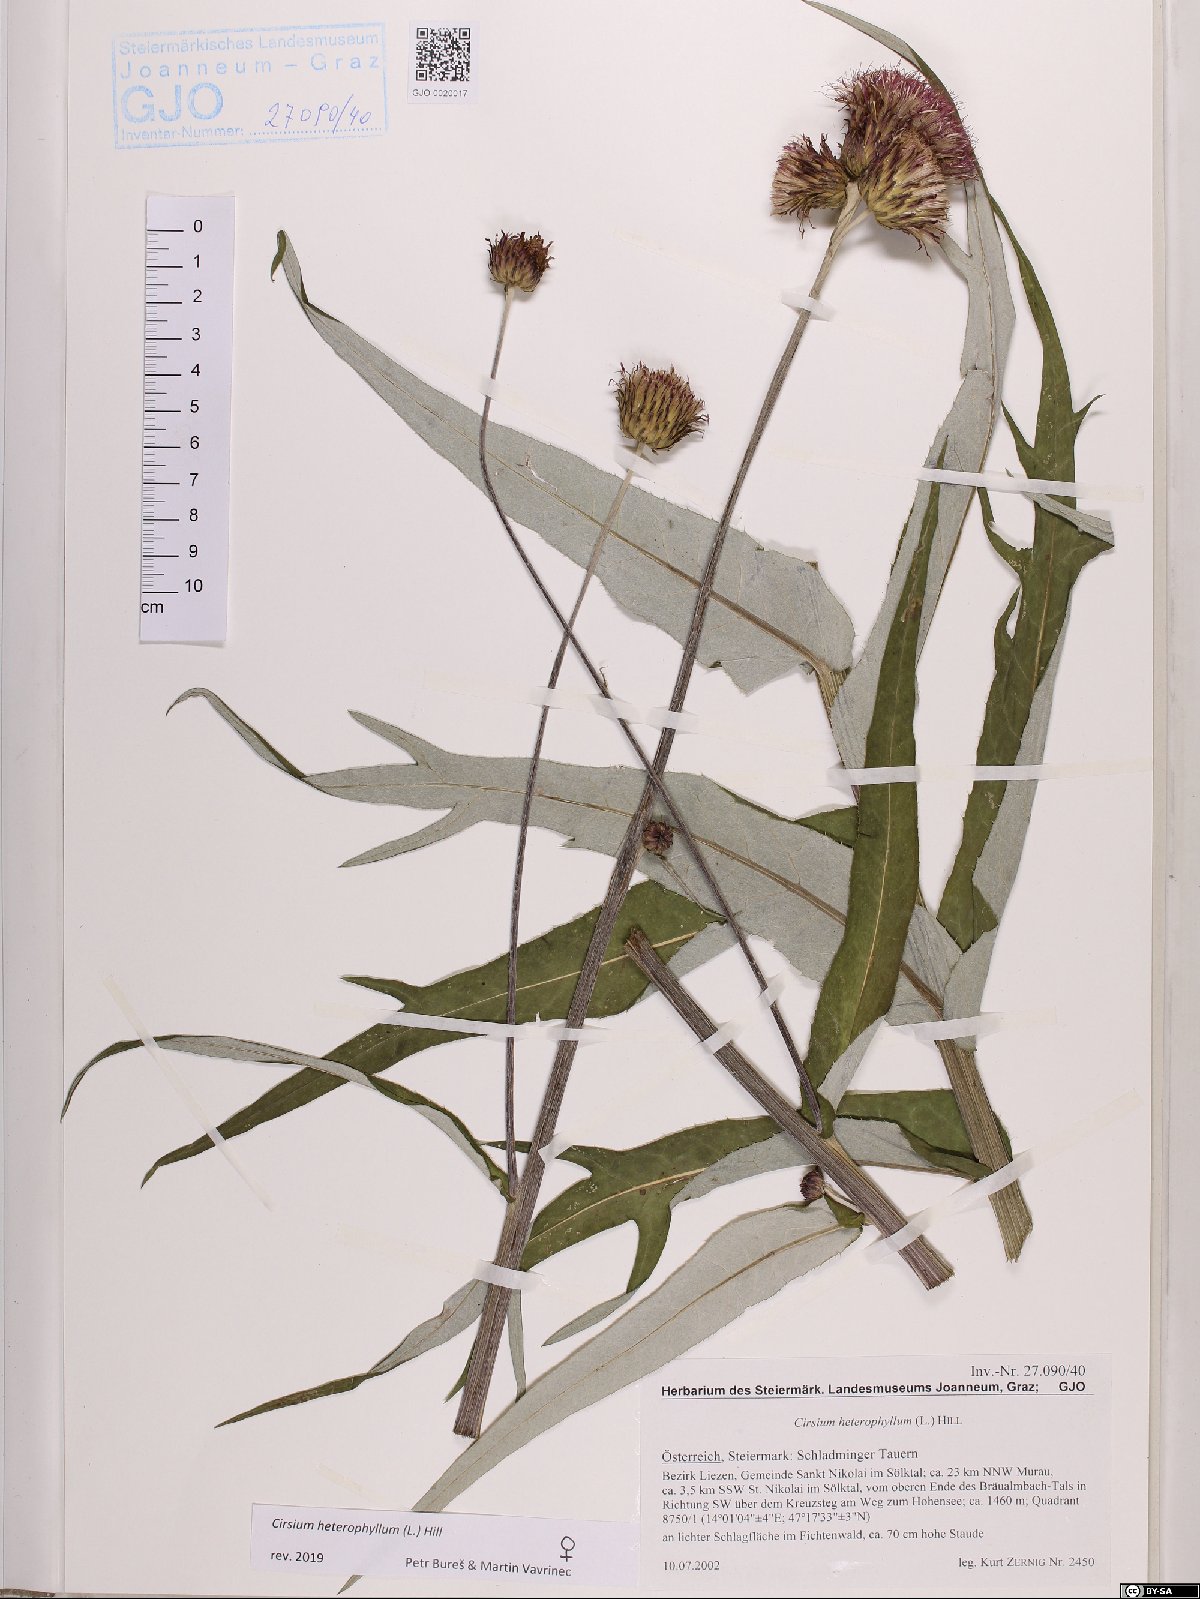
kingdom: Plantae
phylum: Tracheophyta
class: Magnoliopsida
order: Asterales
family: Asteraceae
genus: Cirsium
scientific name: Cirsium heterophyllum
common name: Melancholy thistle
